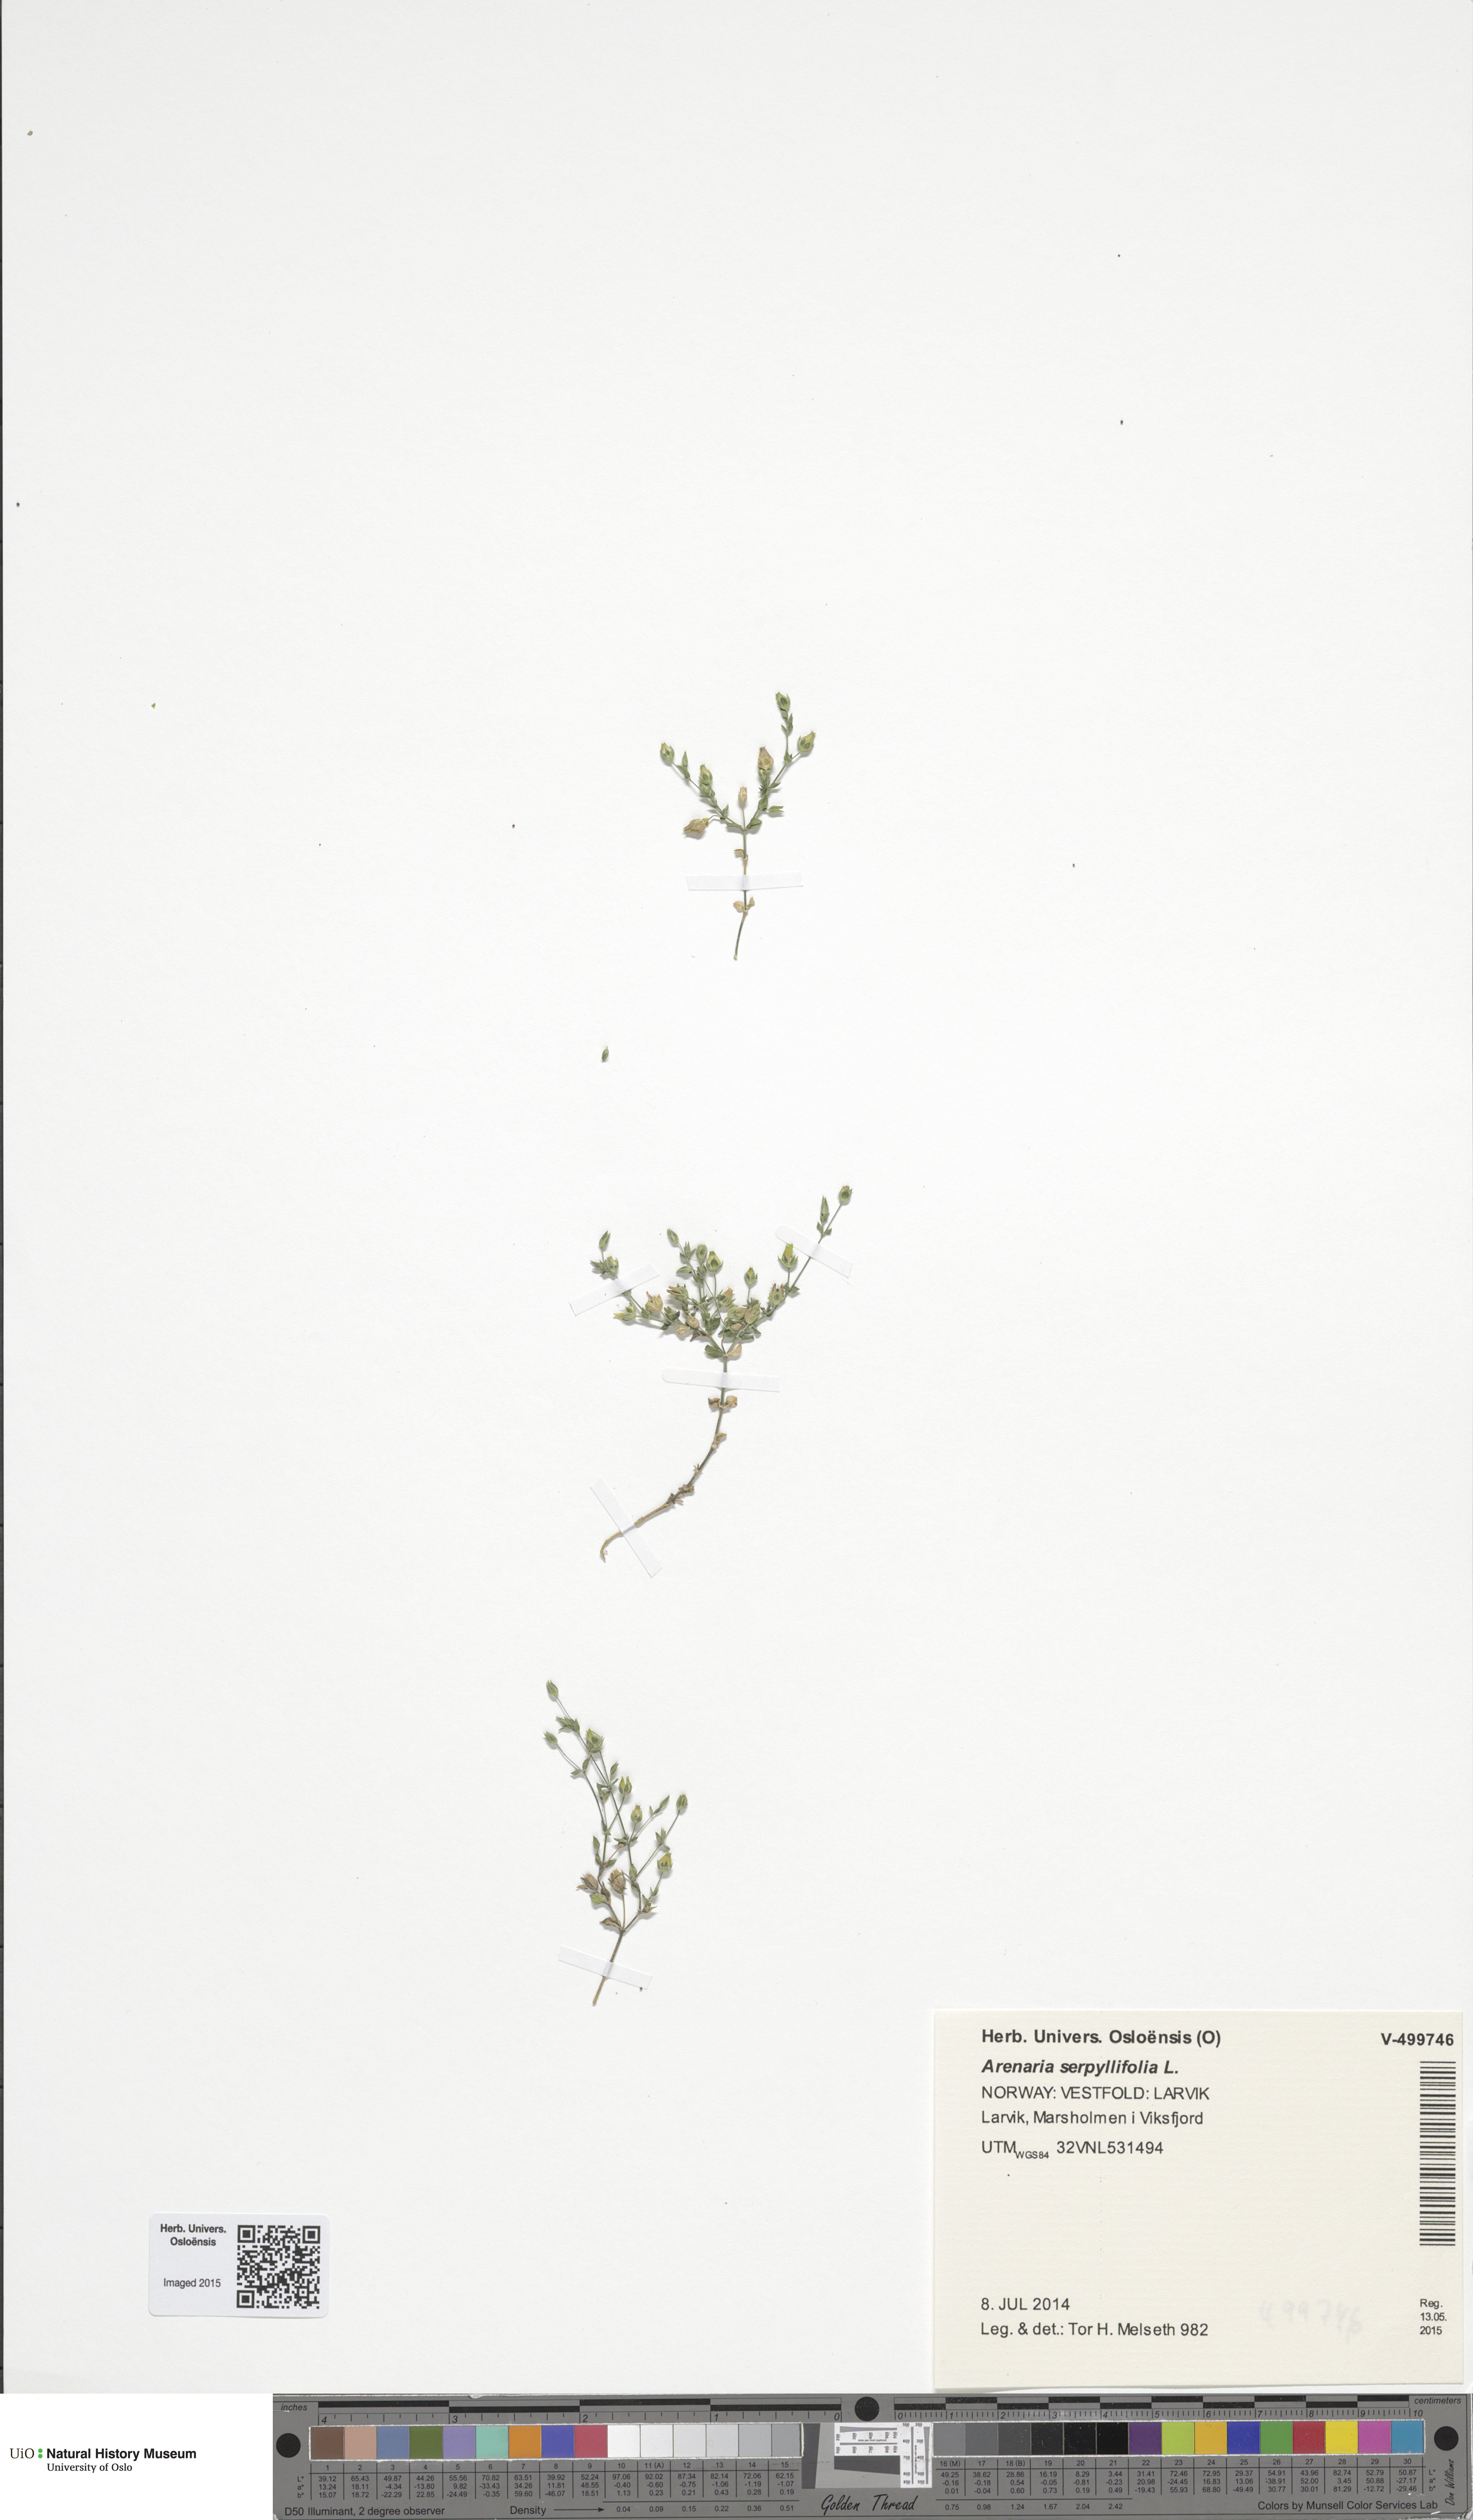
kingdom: Plantae
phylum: Tracheophyta
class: Magnoliopsida
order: Caryophyllales
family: Caryophyllaceae
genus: Arenaria
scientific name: Arenaria serpyllifolia
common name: Thyme-leaved sandwort
